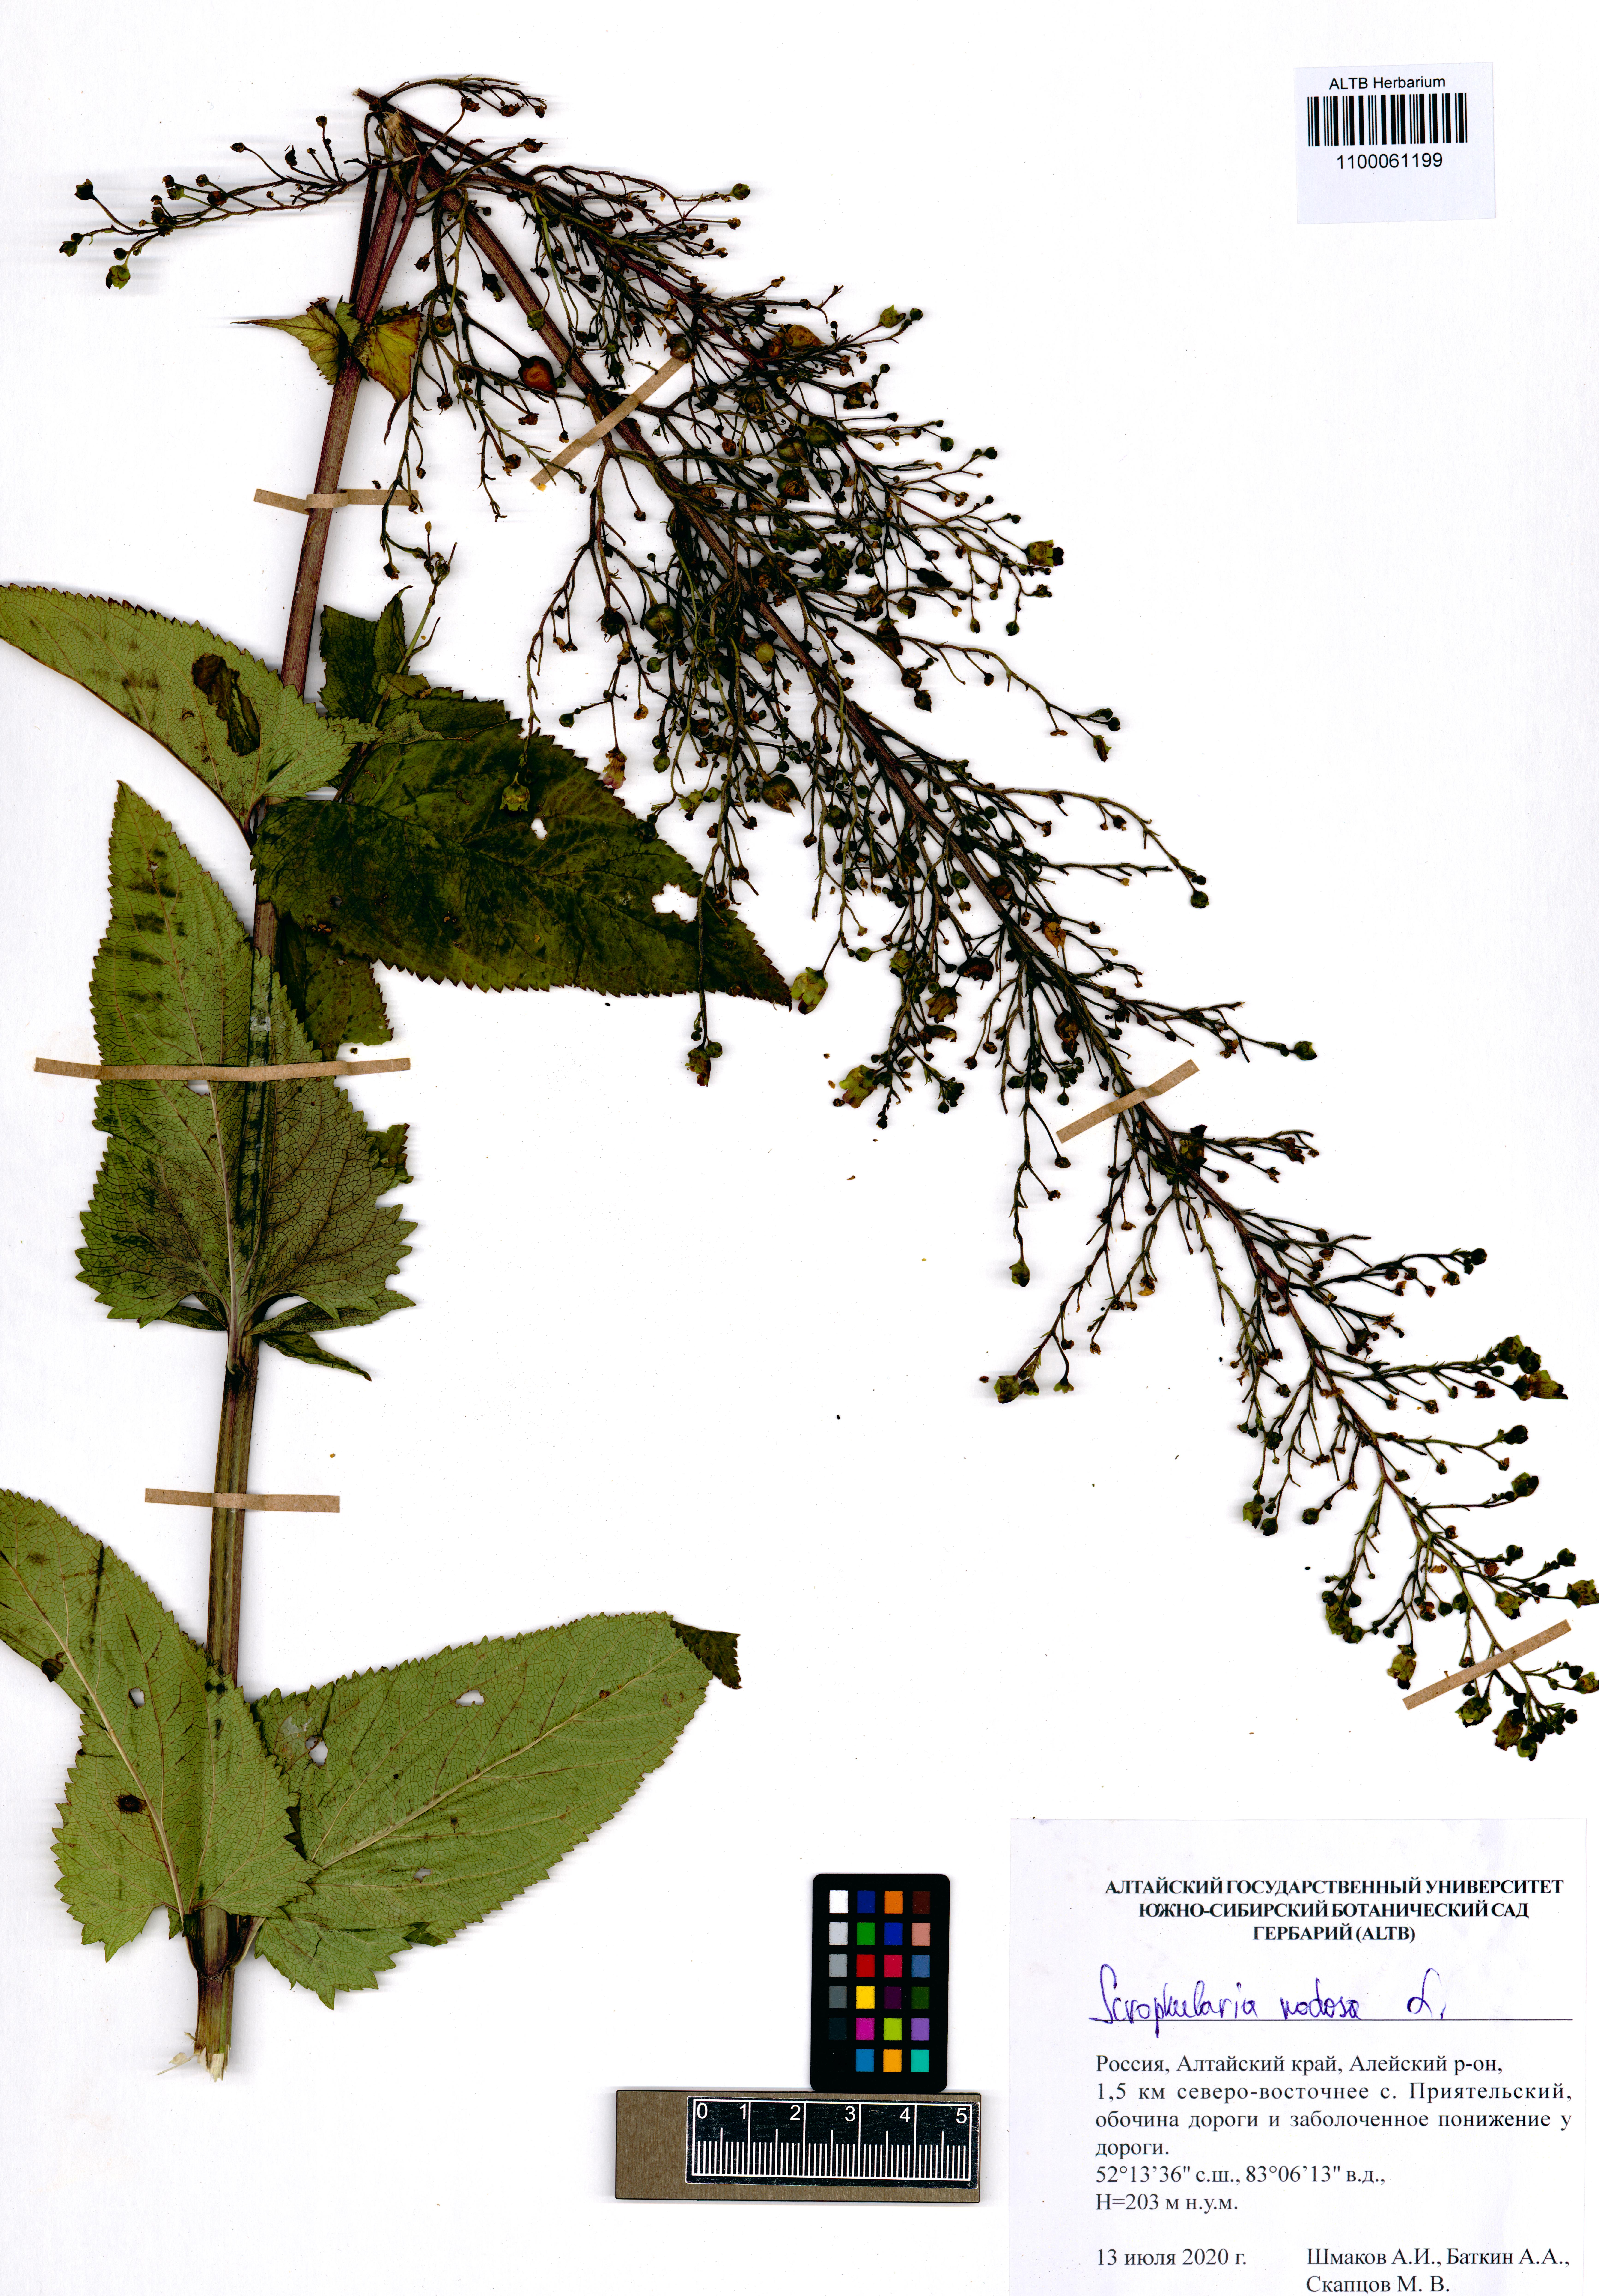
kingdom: Plantae
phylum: Tracheophyta
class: Magnoliopsida
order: Lamiales
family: Scrophulariaceae
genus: Scrophularia
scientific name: Scrophularia nodosa
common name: Common figwort
